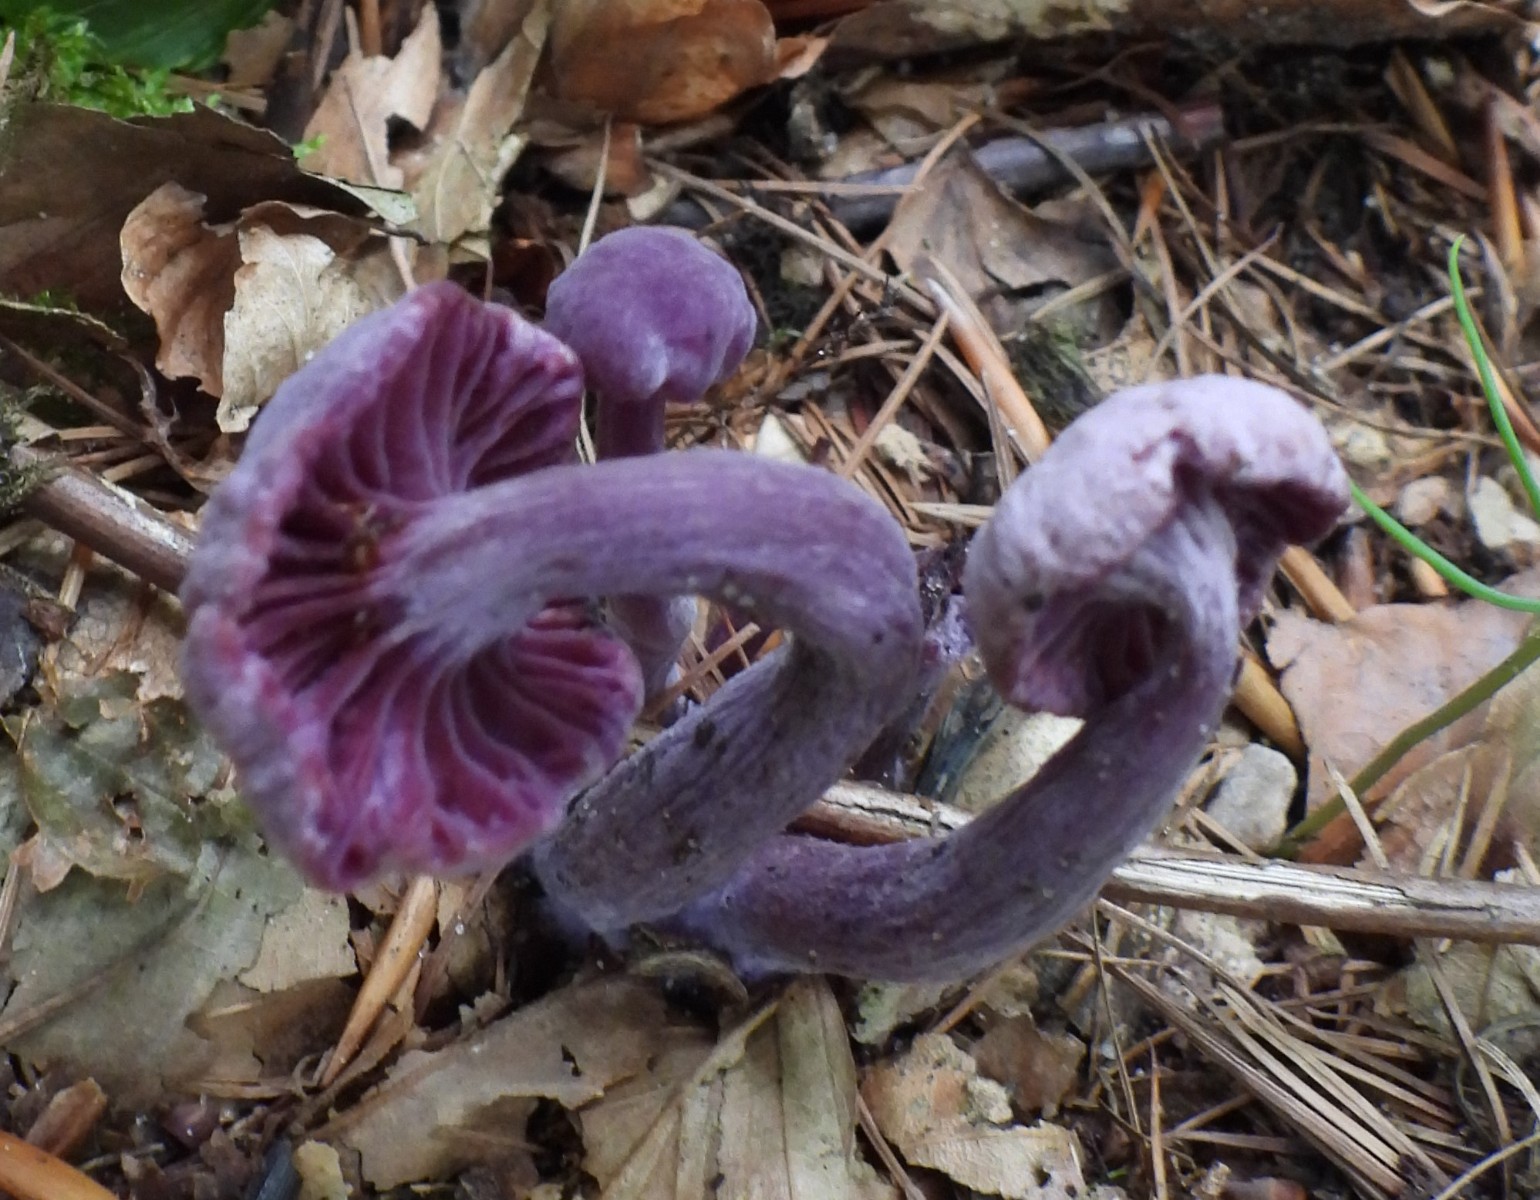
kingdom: Fungi
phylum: Basidiomycota
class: Agaricomycetes
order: Agaricales
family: Hydnangiaceae
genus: Laccaria
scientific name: Laccaria amethystina
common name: violet ametysthat
